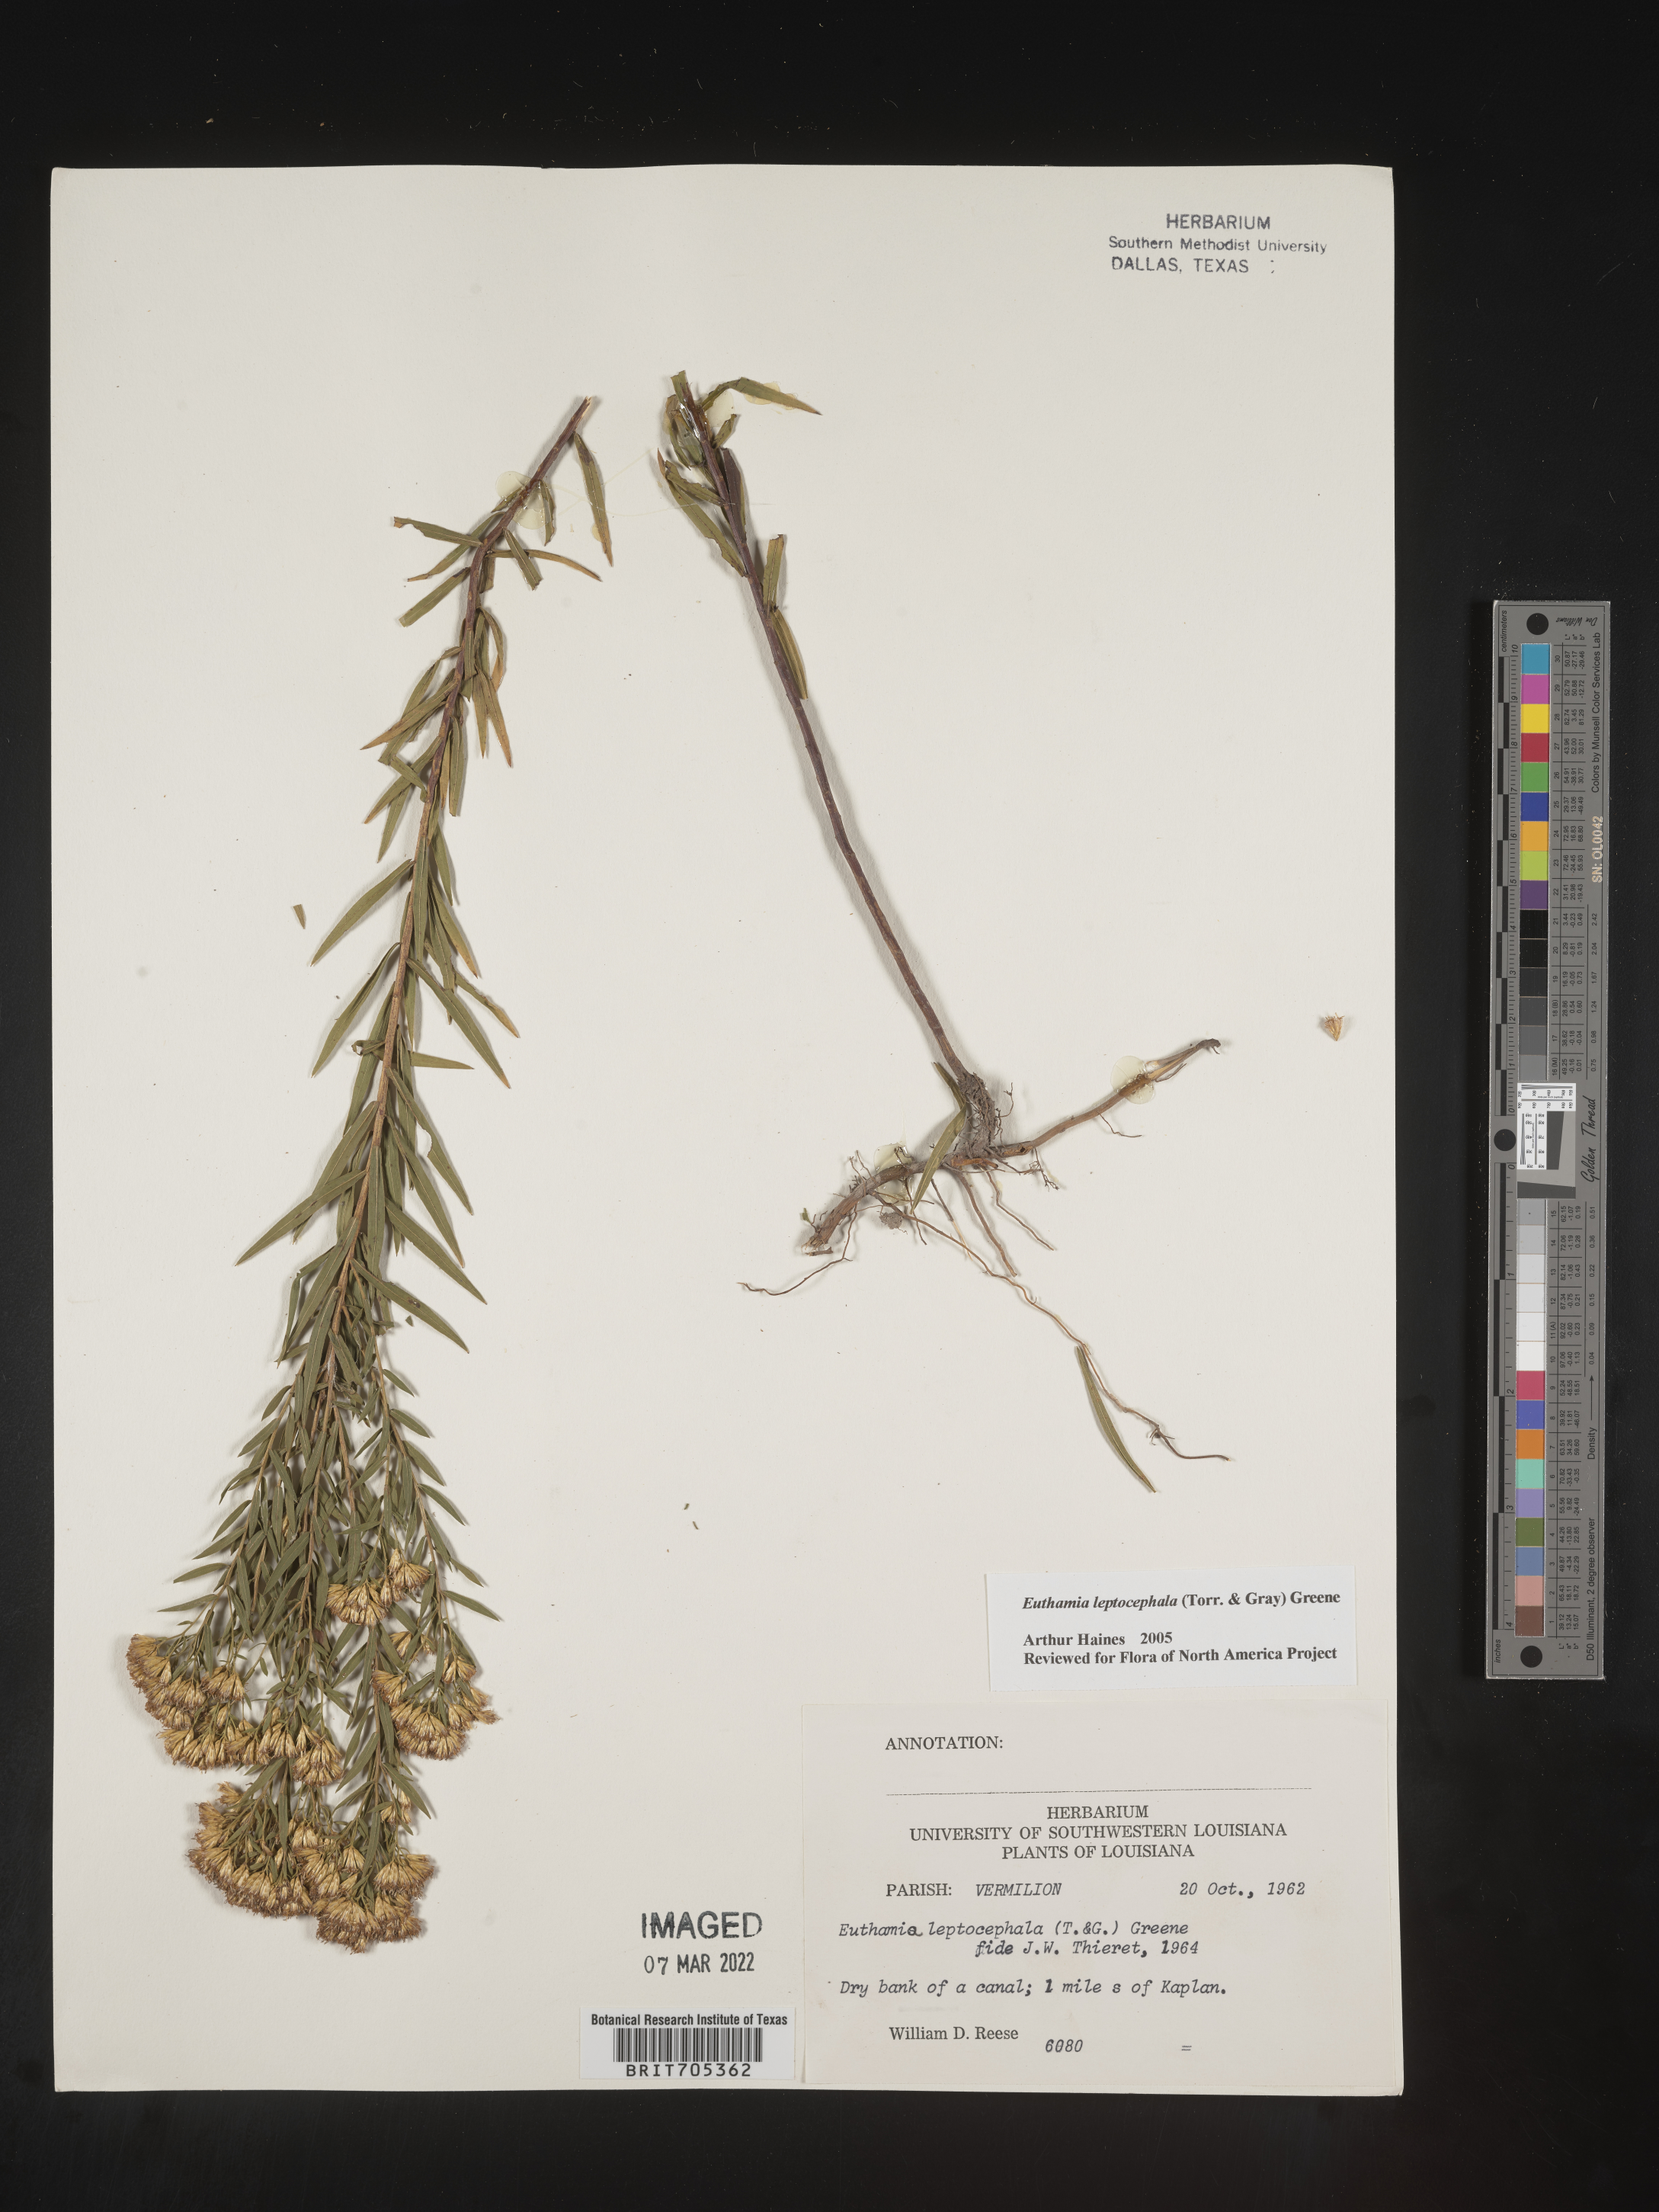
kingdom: Plantae
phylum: Tracheophyta
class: Magnoliopsida
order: Asterales
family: Asteraceae
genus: Euthamia
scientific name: Euthamia leptocephala
